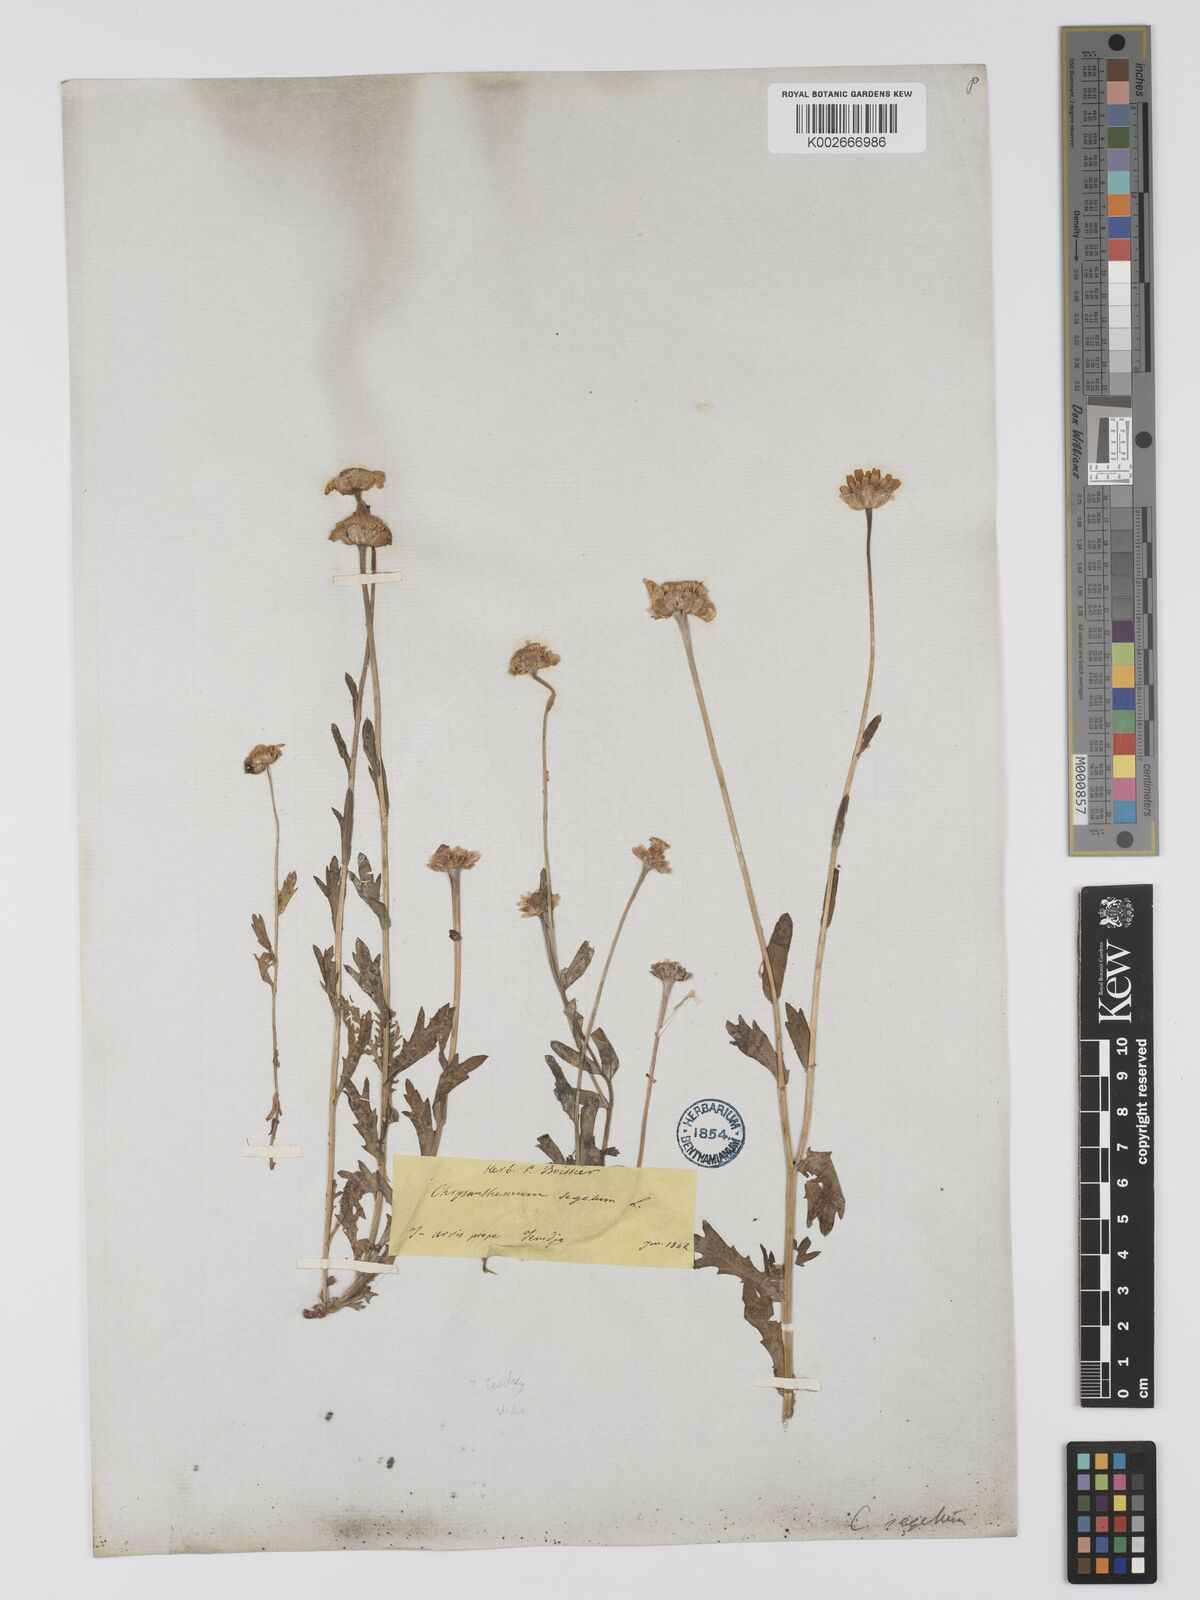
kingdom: Plantae
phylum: Tracheophyta
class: Magnoliopsida
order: Asterales
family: Asteraceae
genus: Glebionis
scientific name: Glebionis segetum
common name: Corndaisy
